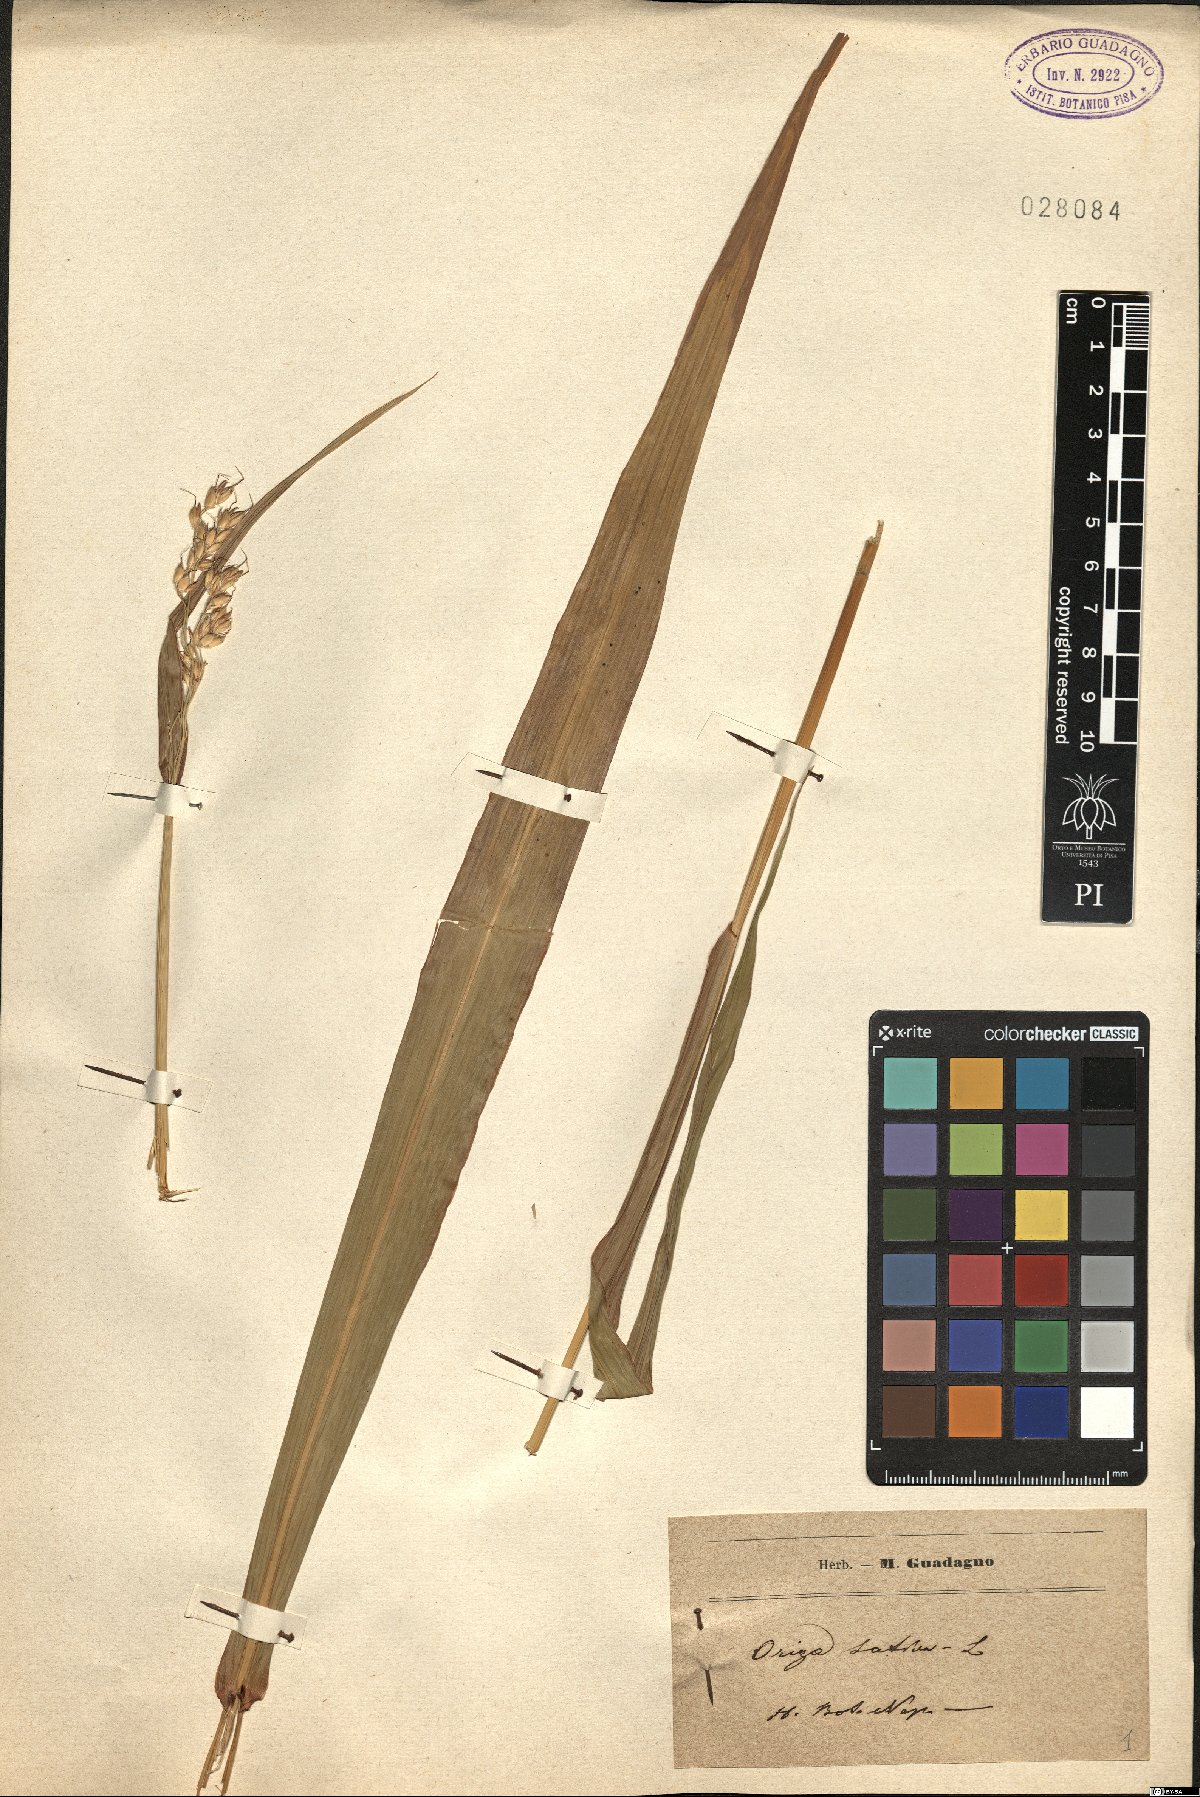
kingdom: Plantae
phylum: Tracheophyta
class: Liliopsida
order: Poales
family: Poaceae
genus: Oryza
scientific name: Oryza latifolia
